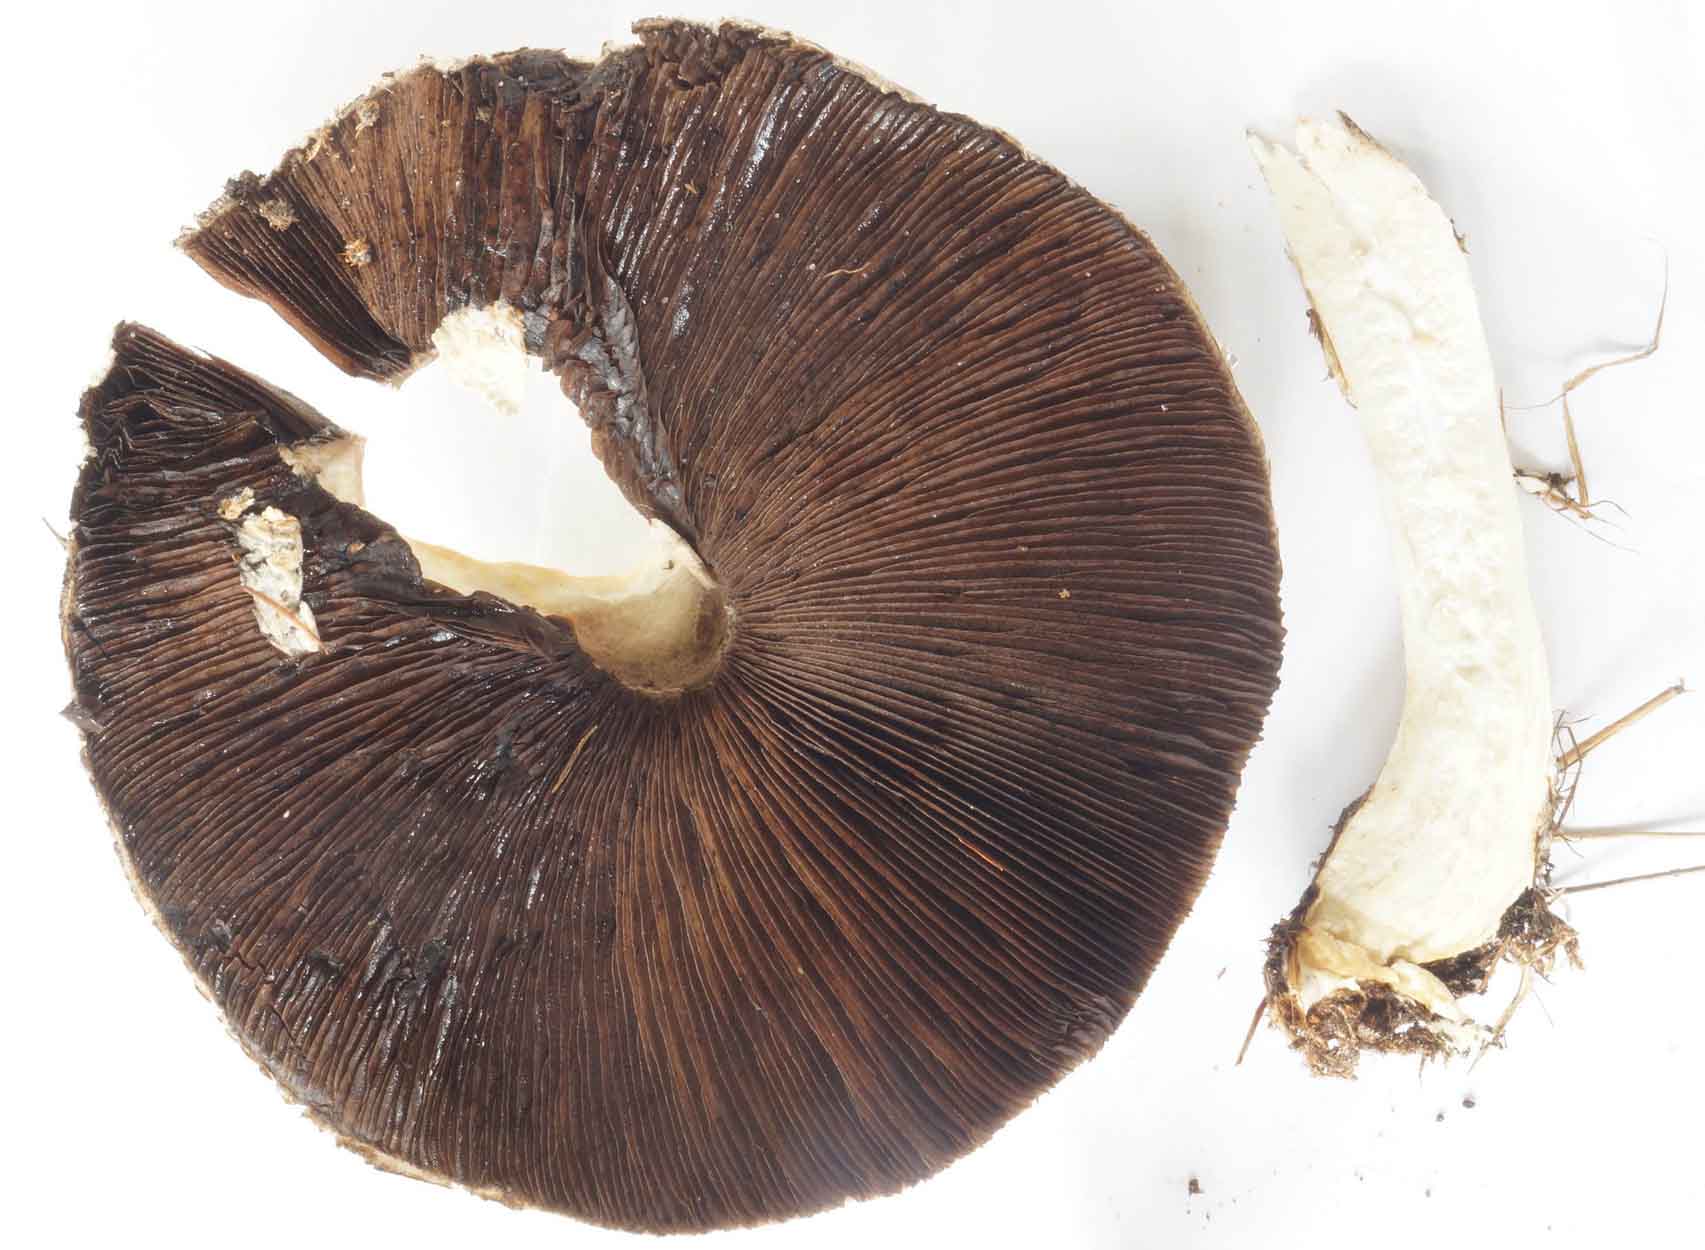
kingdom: Fungi
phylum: Basidiomycota
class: Agaricomycetes
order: Agaricales
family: Agaricaceae
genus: Agaricus
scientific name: Agaricus arvensis
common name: ager-champignon
